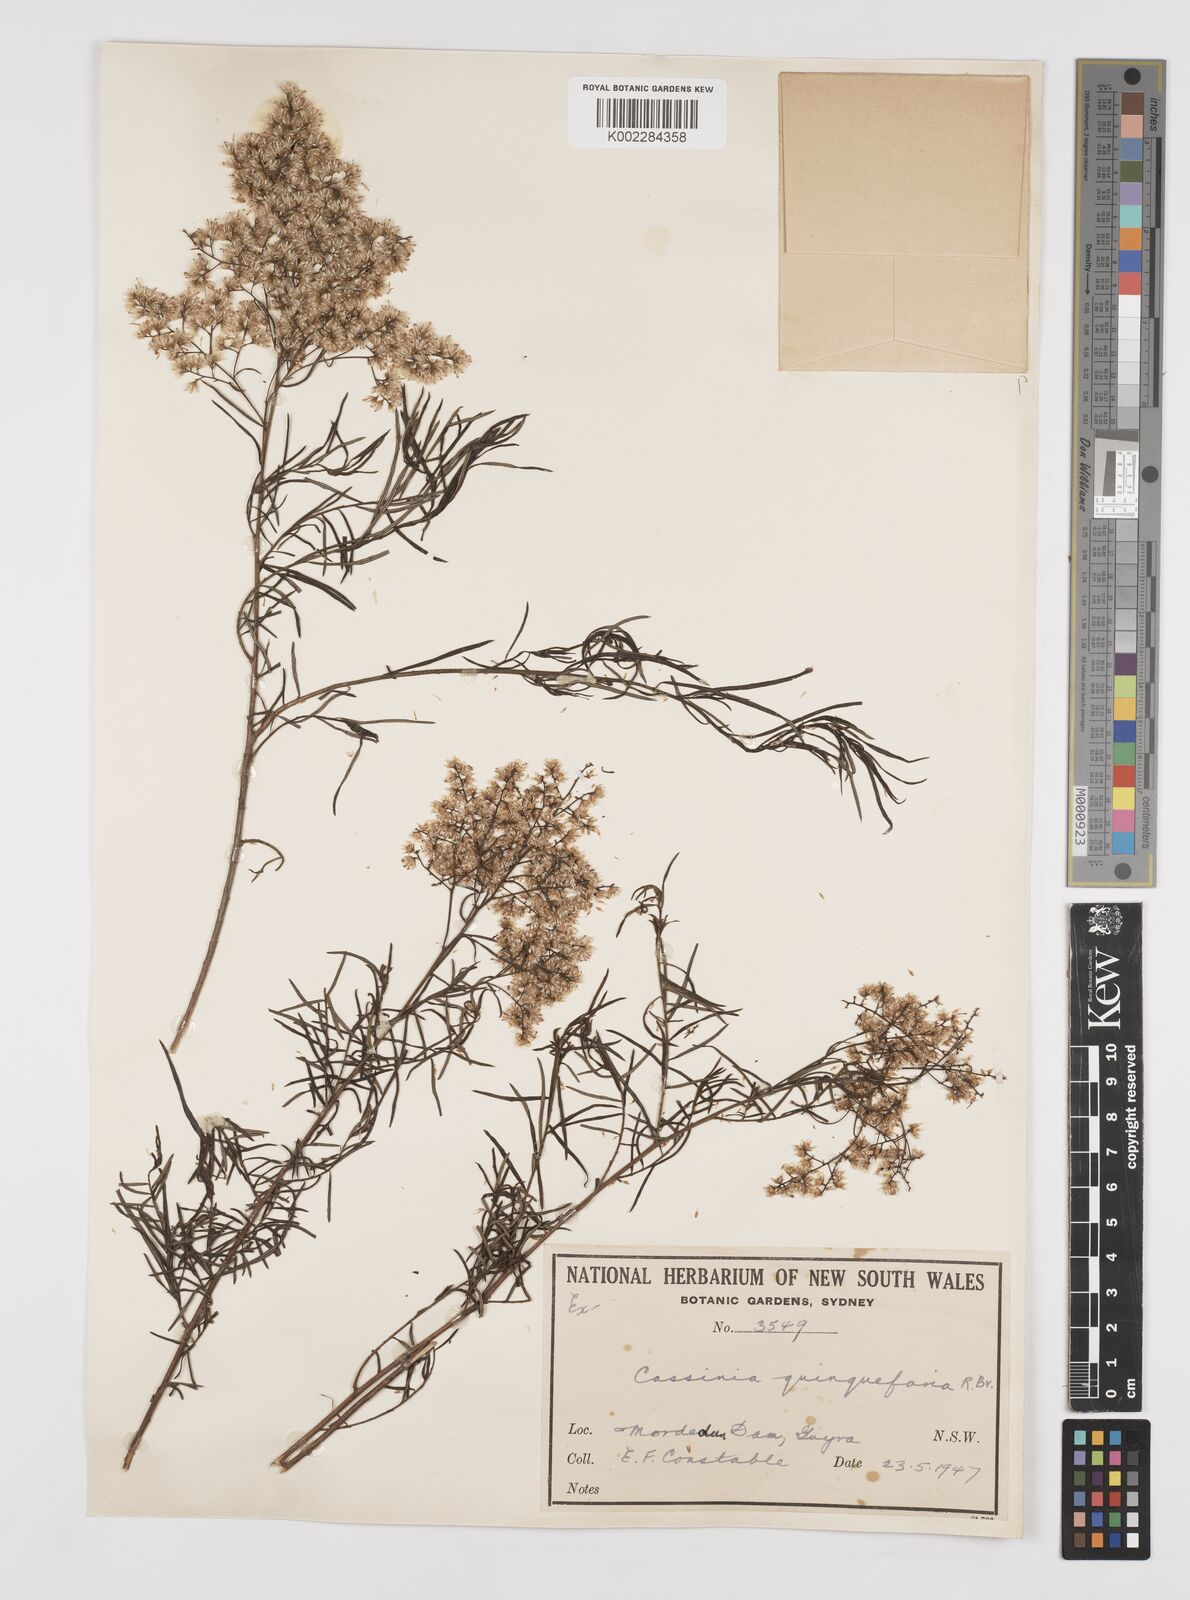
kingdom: Plantae
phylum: Tracheophyta
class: Magnoliopsida
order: Asterales
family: Asteraceae
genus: Cassinia
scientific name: Cassinia quinquefaria
